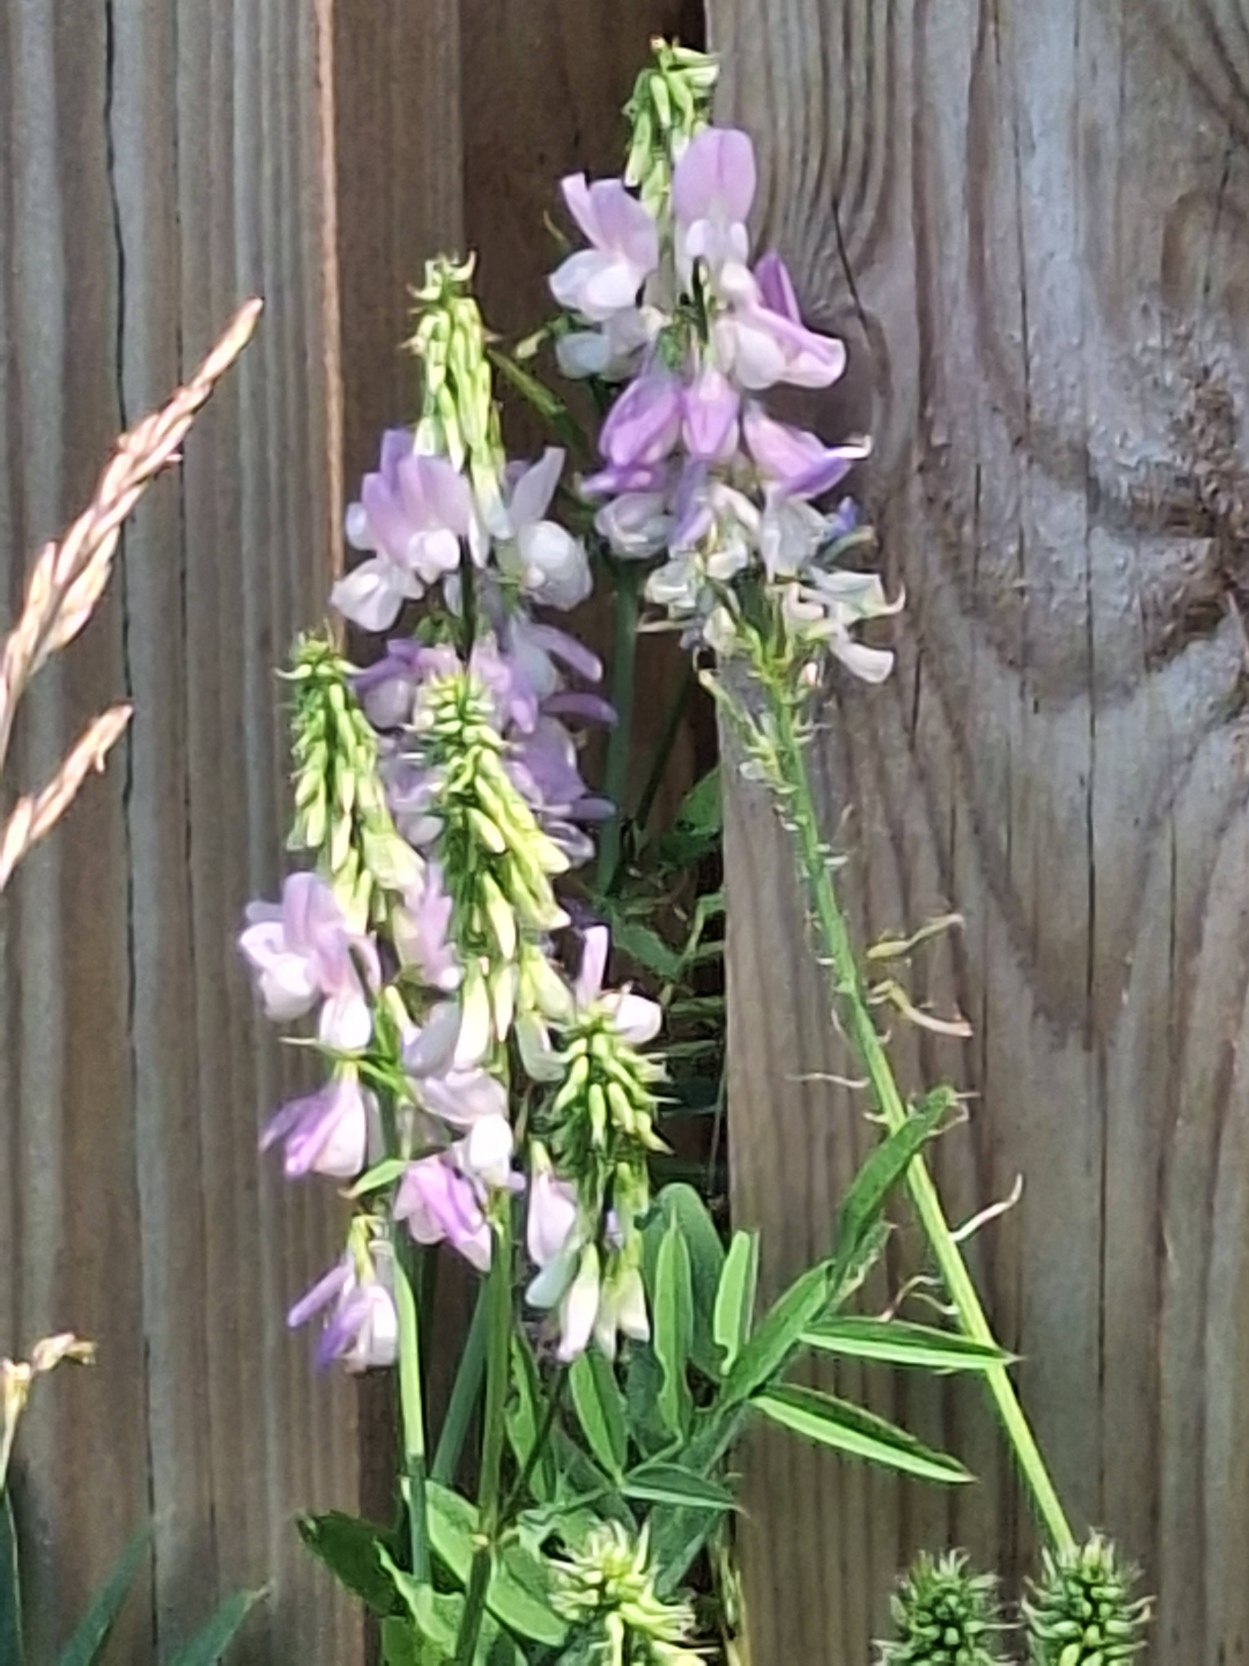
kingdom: Plantae
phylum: Tracheophyta
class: Magnoliopsida
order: Fabales
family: Fabaceae
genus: Galega
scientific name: Galega officinalis
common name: Læge-stregbælg
